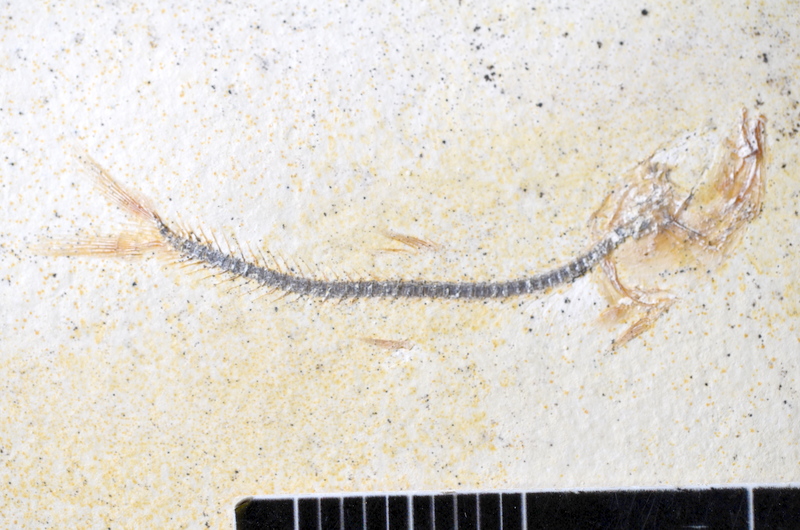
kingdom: Animalia
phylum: Chordata
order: Salmoniformes
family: Orthogonikleithridae
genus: Orthogonikleithrus
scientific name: Orthogonikleithrus hoelli
